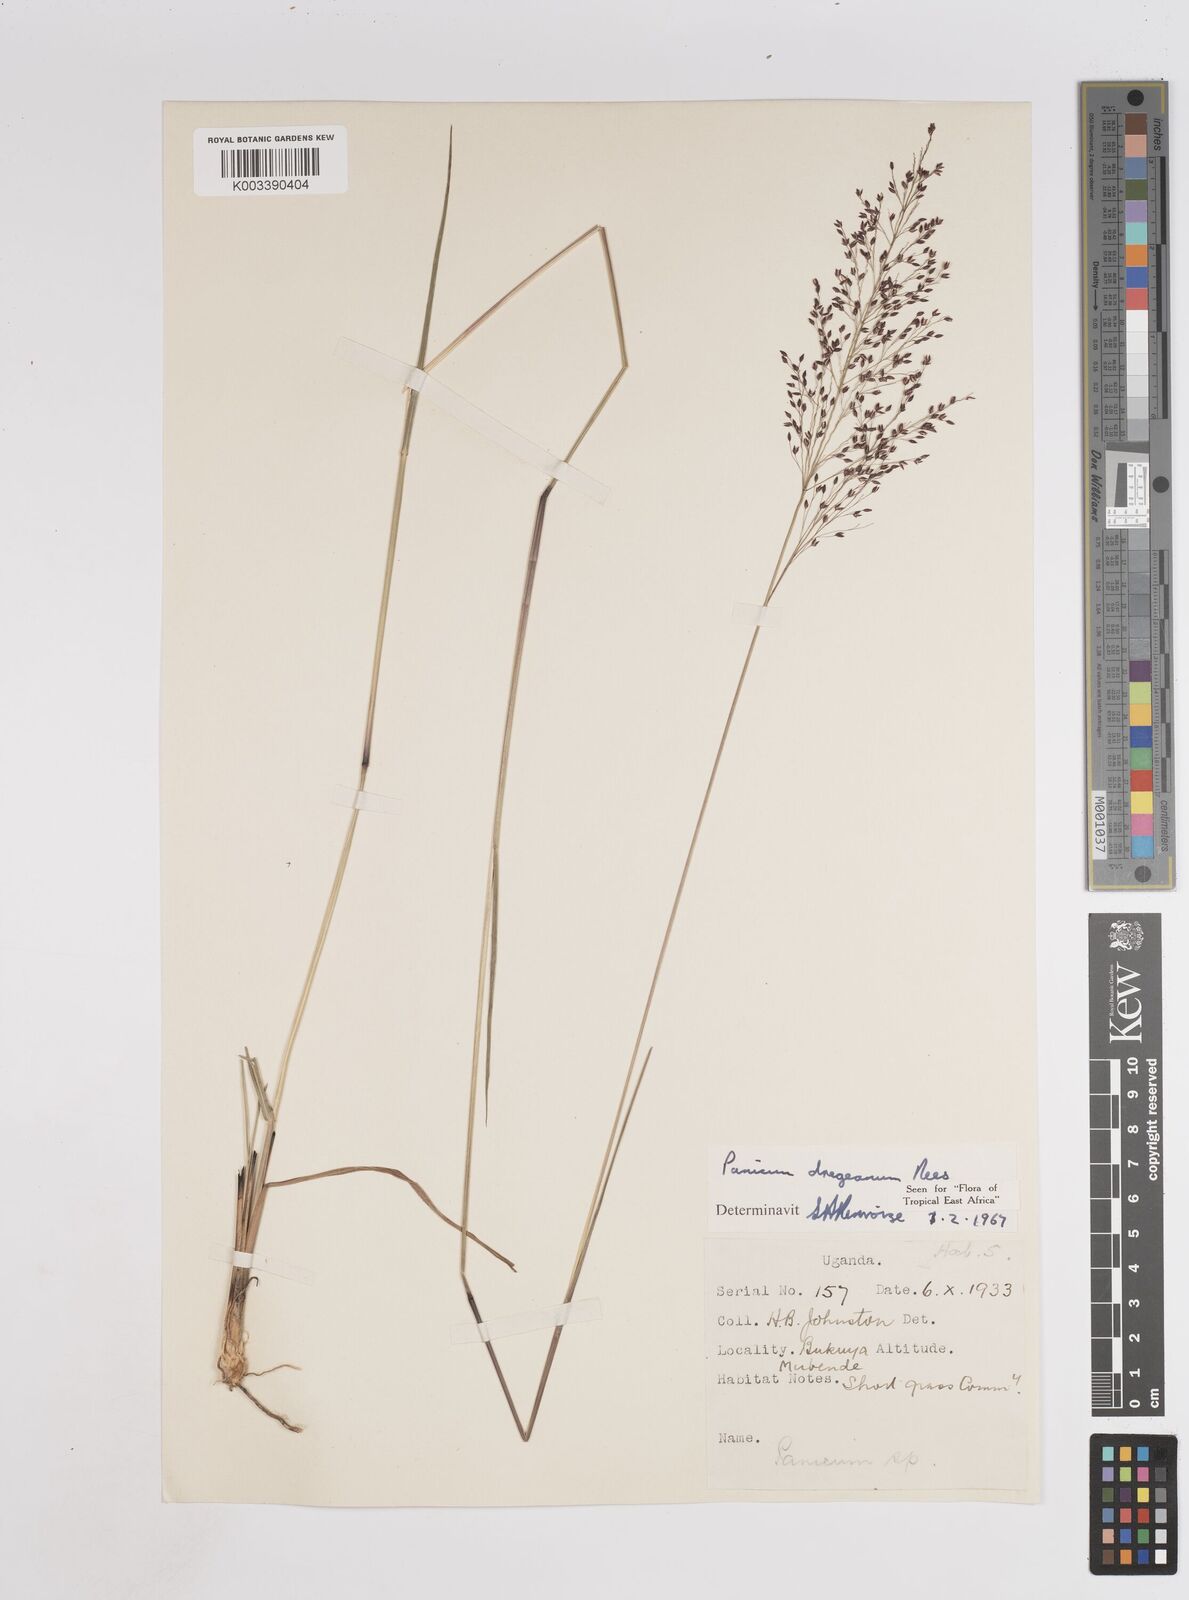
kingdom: Plantae
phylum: Tracheophyta
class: Liliopsida
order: Poales
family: Poaceae
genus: Panicum
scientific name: Panicum dregeanum
